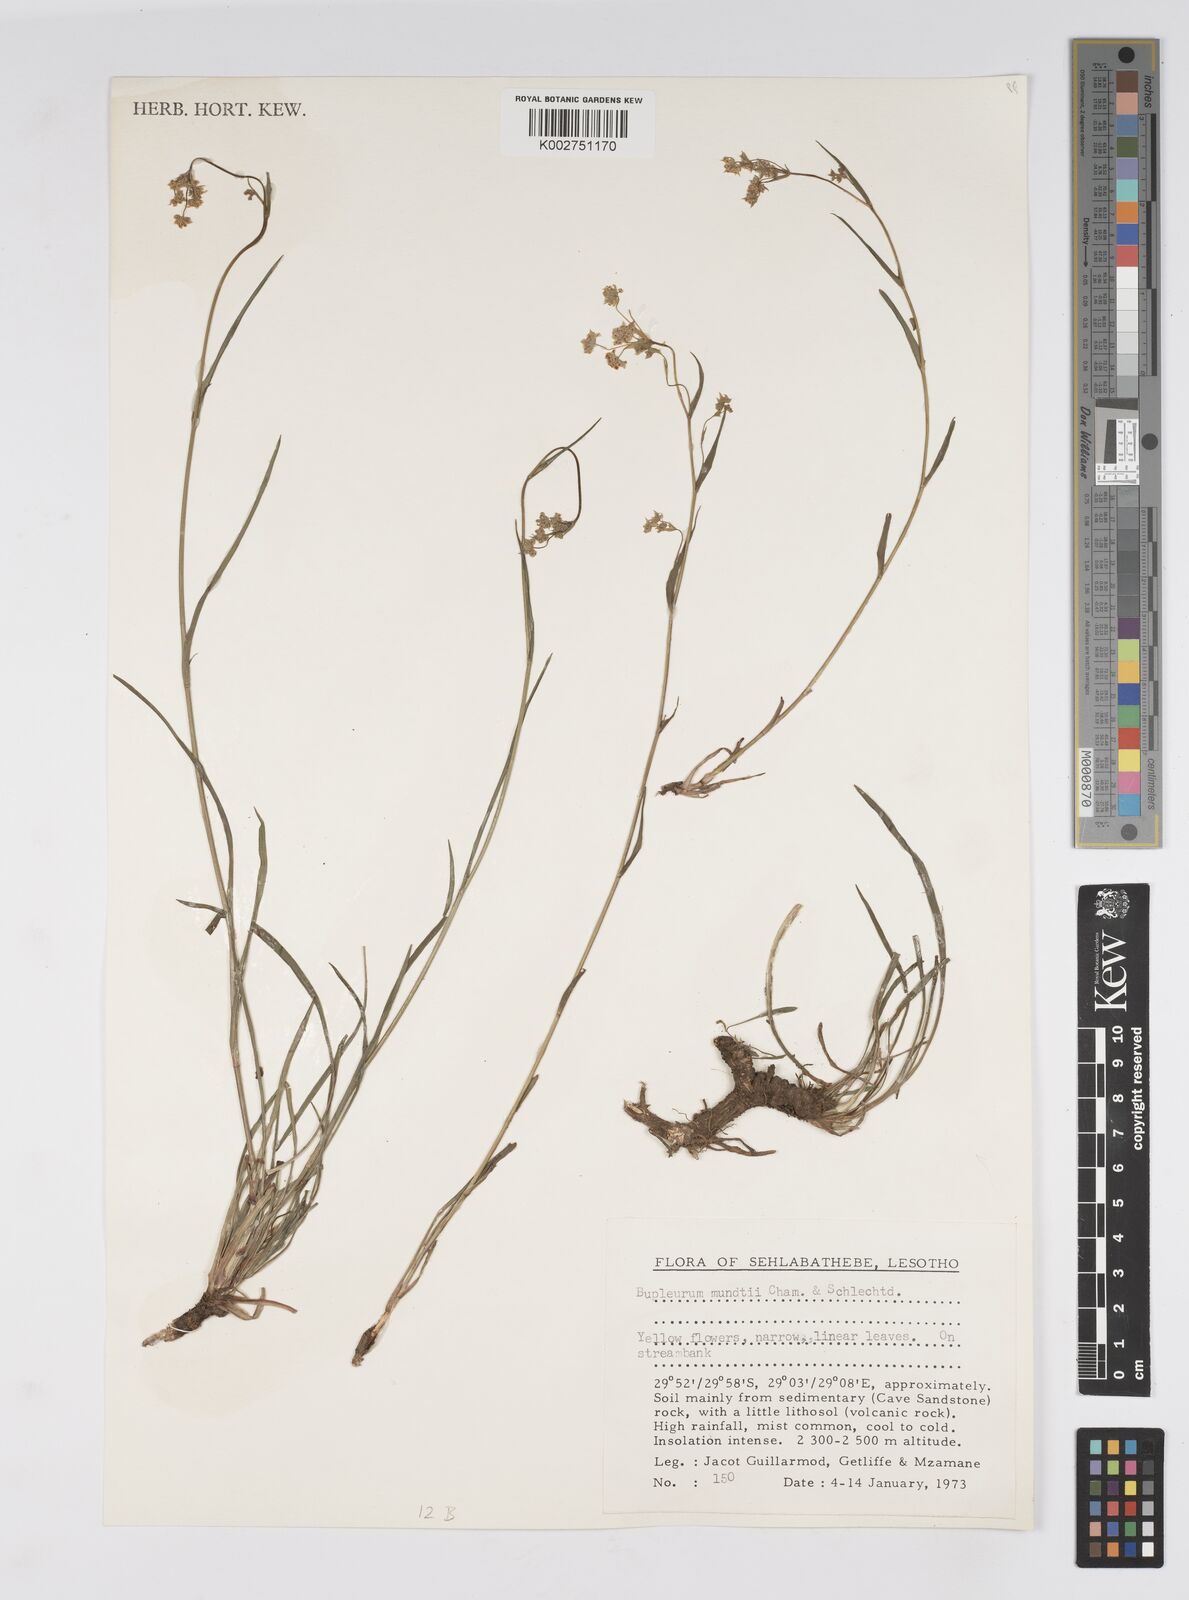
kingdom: Plantae
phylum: Tracheophyta
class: Magnoliopsida
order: Apiales
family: Apiaceae
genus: Bupleurum
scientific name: Bupleurum mundii
